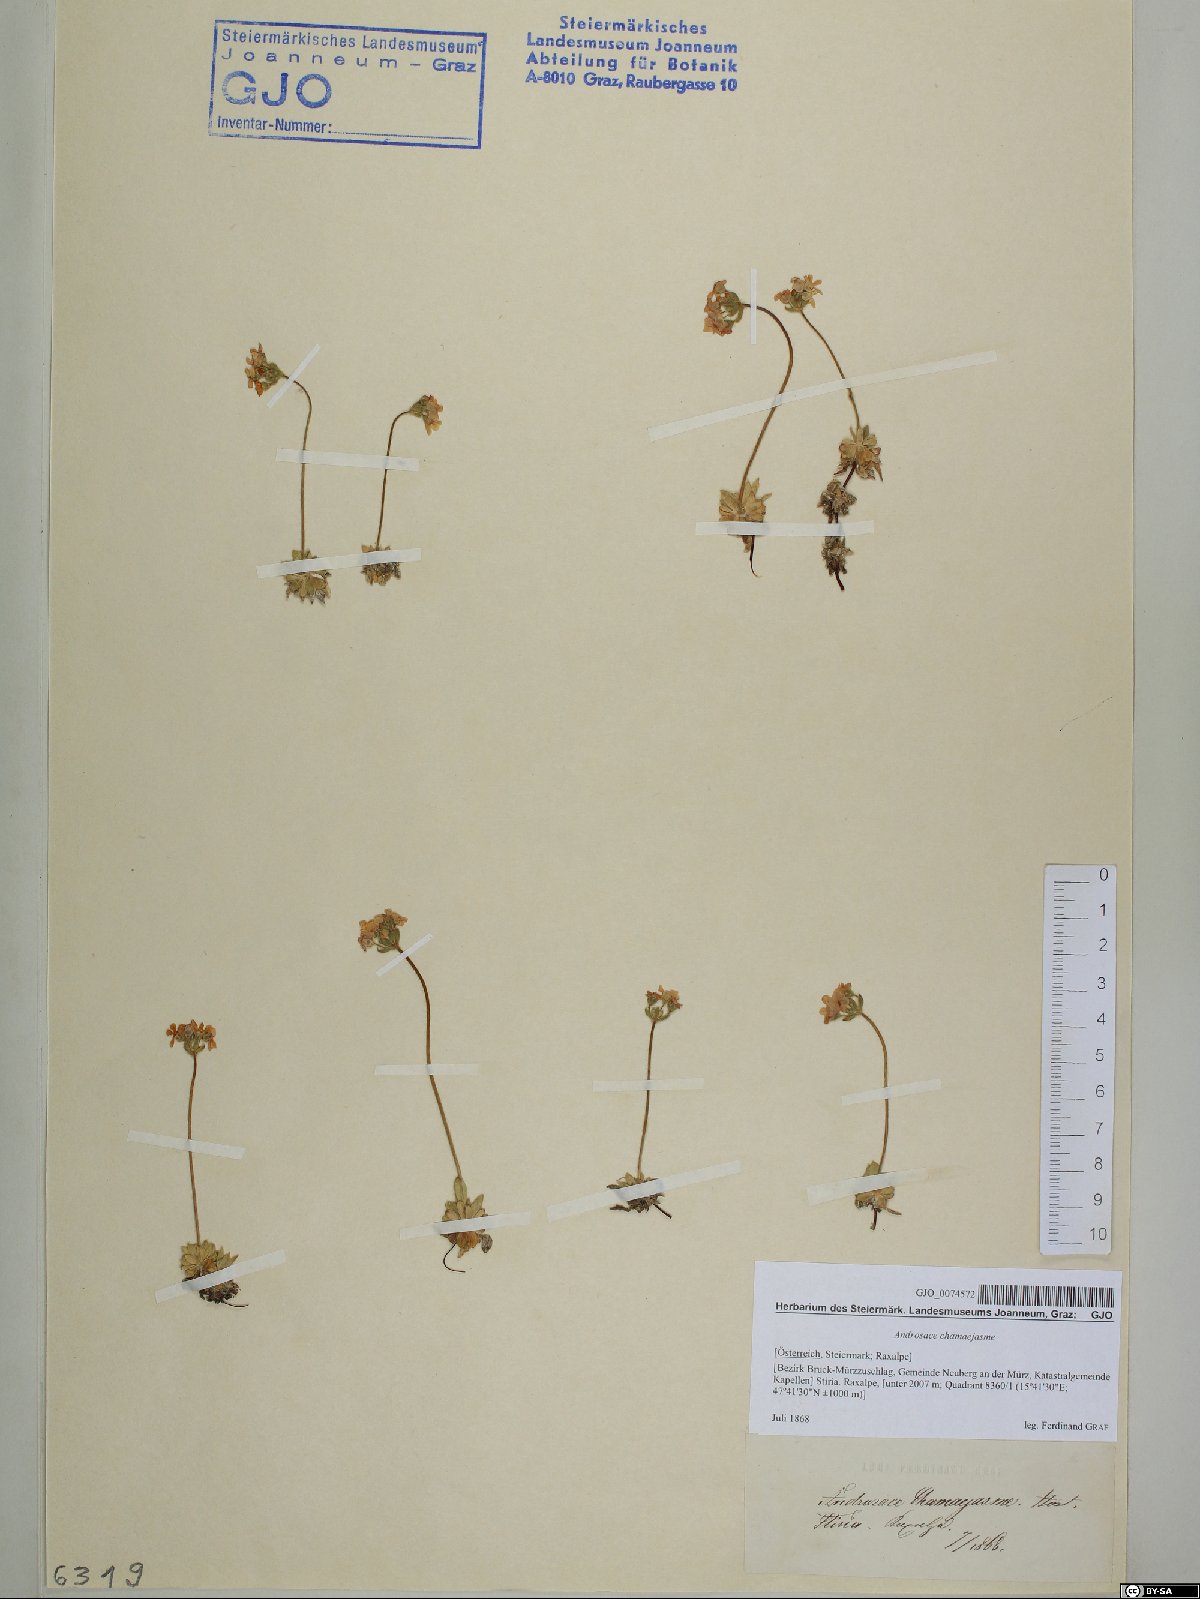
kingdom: Plantae
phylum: Tracheophyta
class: Magnoliopsida
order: Ericales
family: Primulaceae
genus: Androsace
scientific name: Androsace chamaejasme
